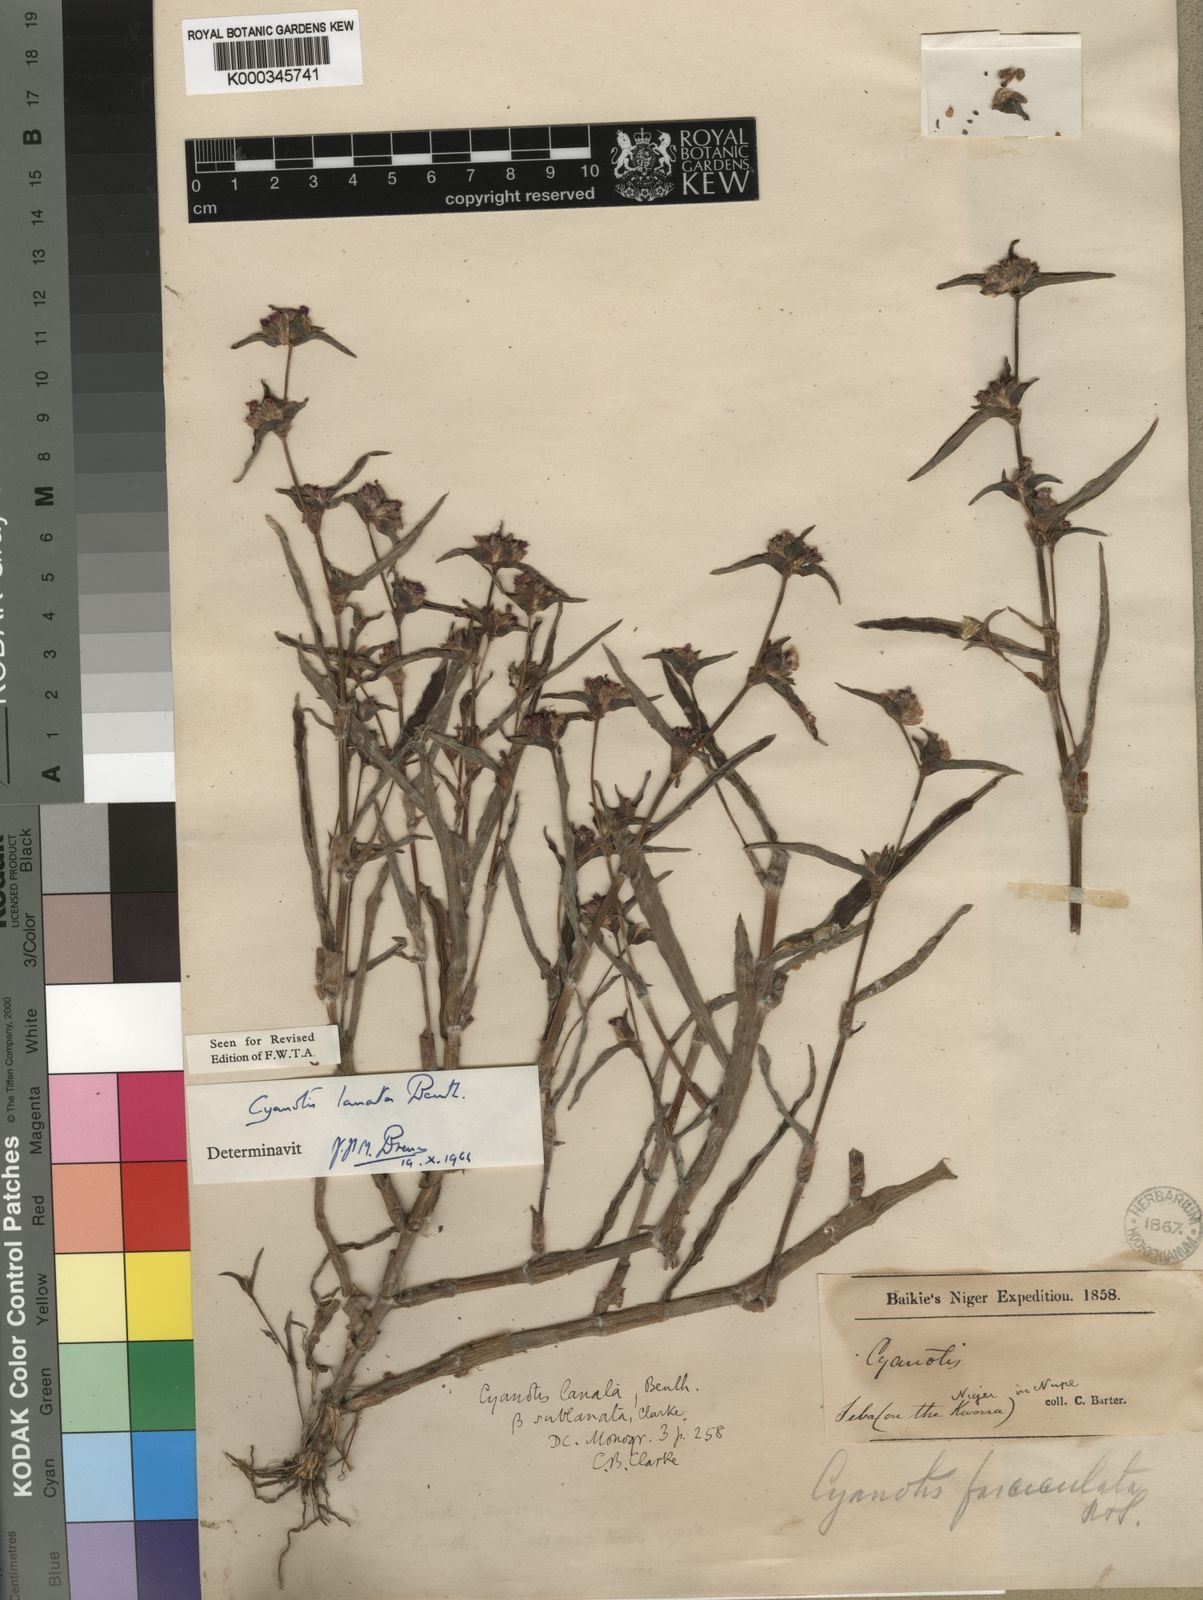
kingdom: Plantae
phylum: Tracheophyta
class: Liliopsida
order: Commelinales
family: Commelinaceae
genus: Cyanotis
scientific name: Cyanotis lanata
